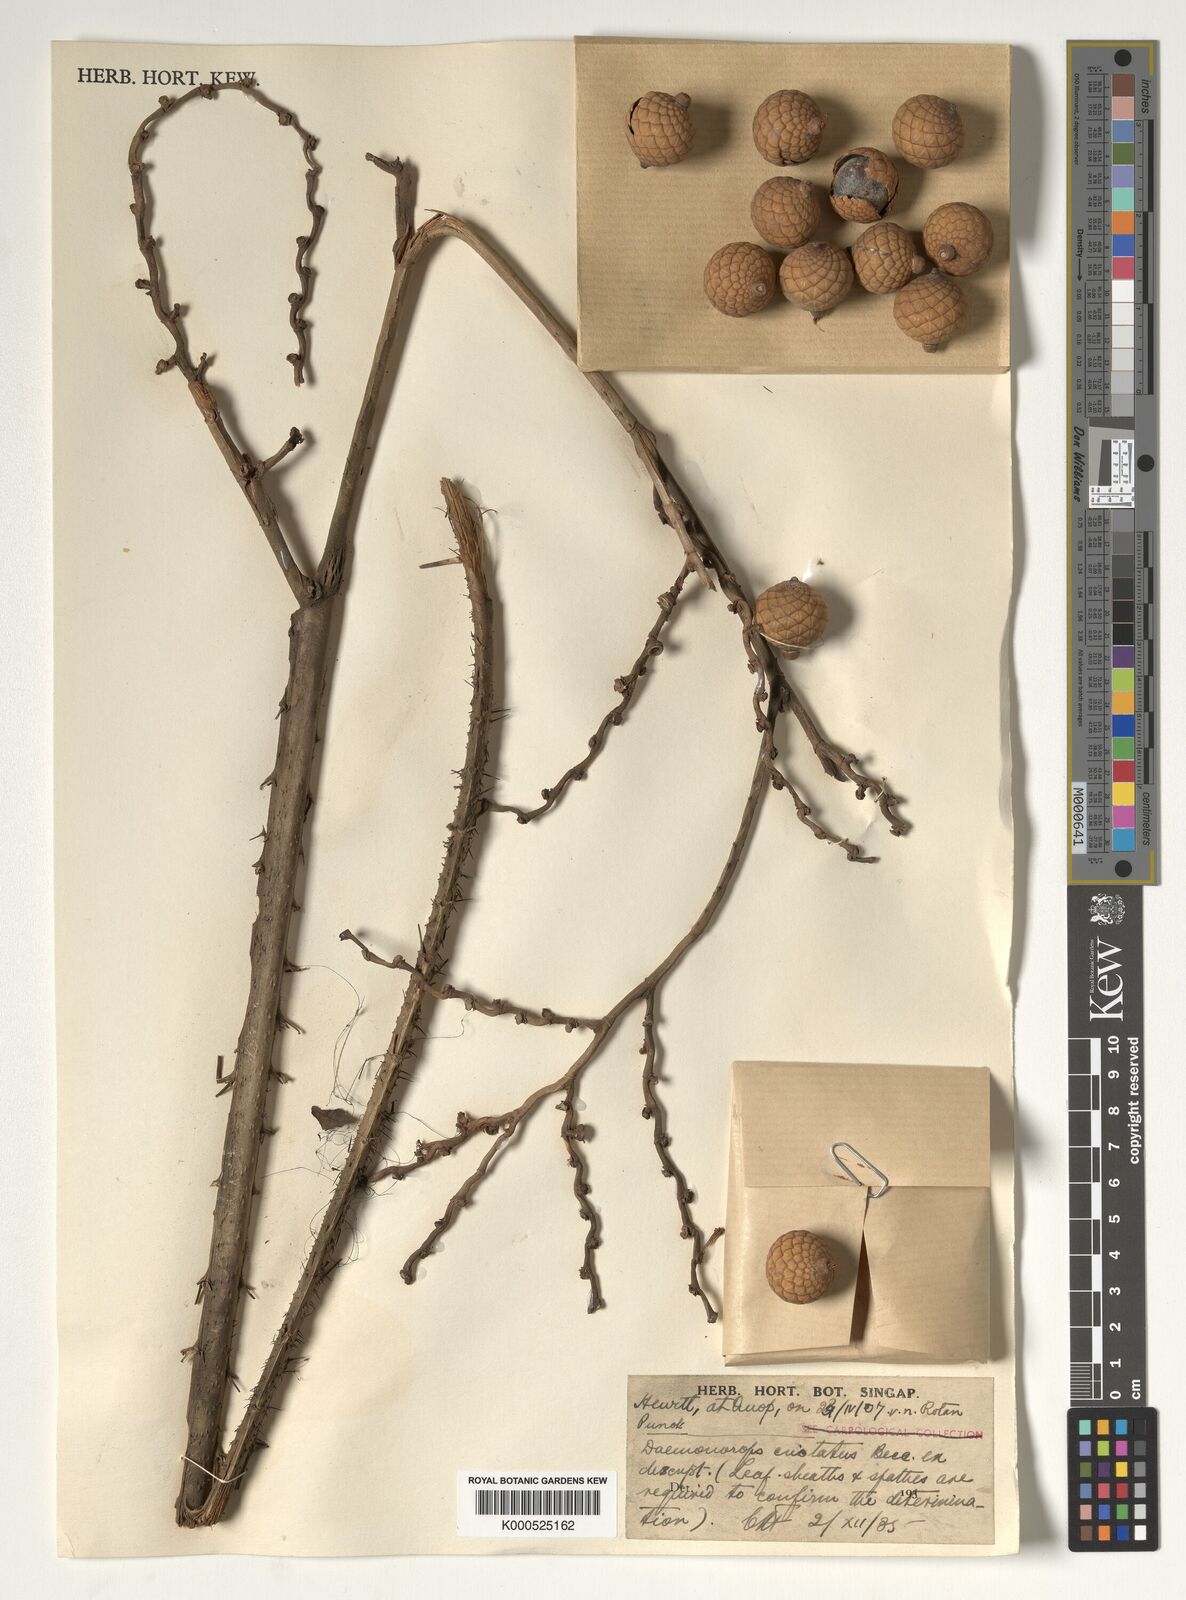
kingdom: Plantae
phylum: Tracheophyta
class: Liliopsida
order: Arecales
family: Arecaceae
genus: Calamus
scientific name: Calamus cristatus
